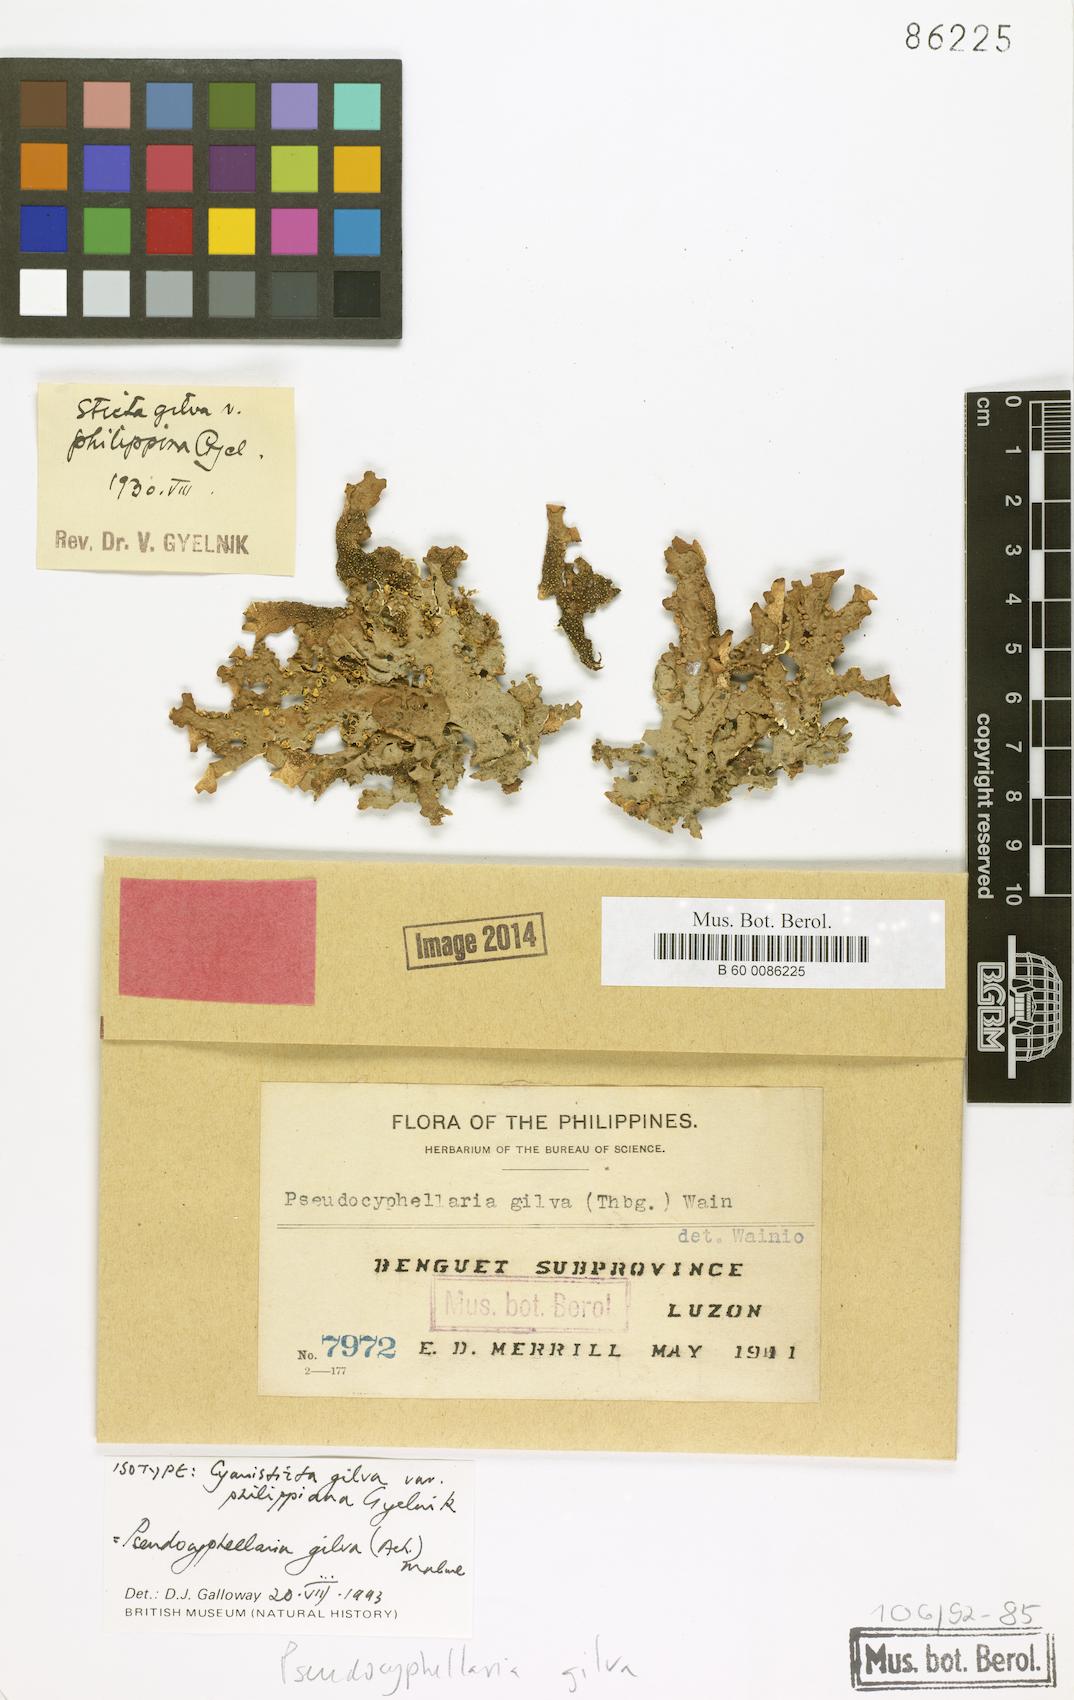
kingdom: Fungi
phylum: Ascomycota
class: Lecanoromycetes
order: Peltigerales
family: Lobariaceae
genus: Pseudocyphellaria
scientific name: Pseudocyphellaria gilva
